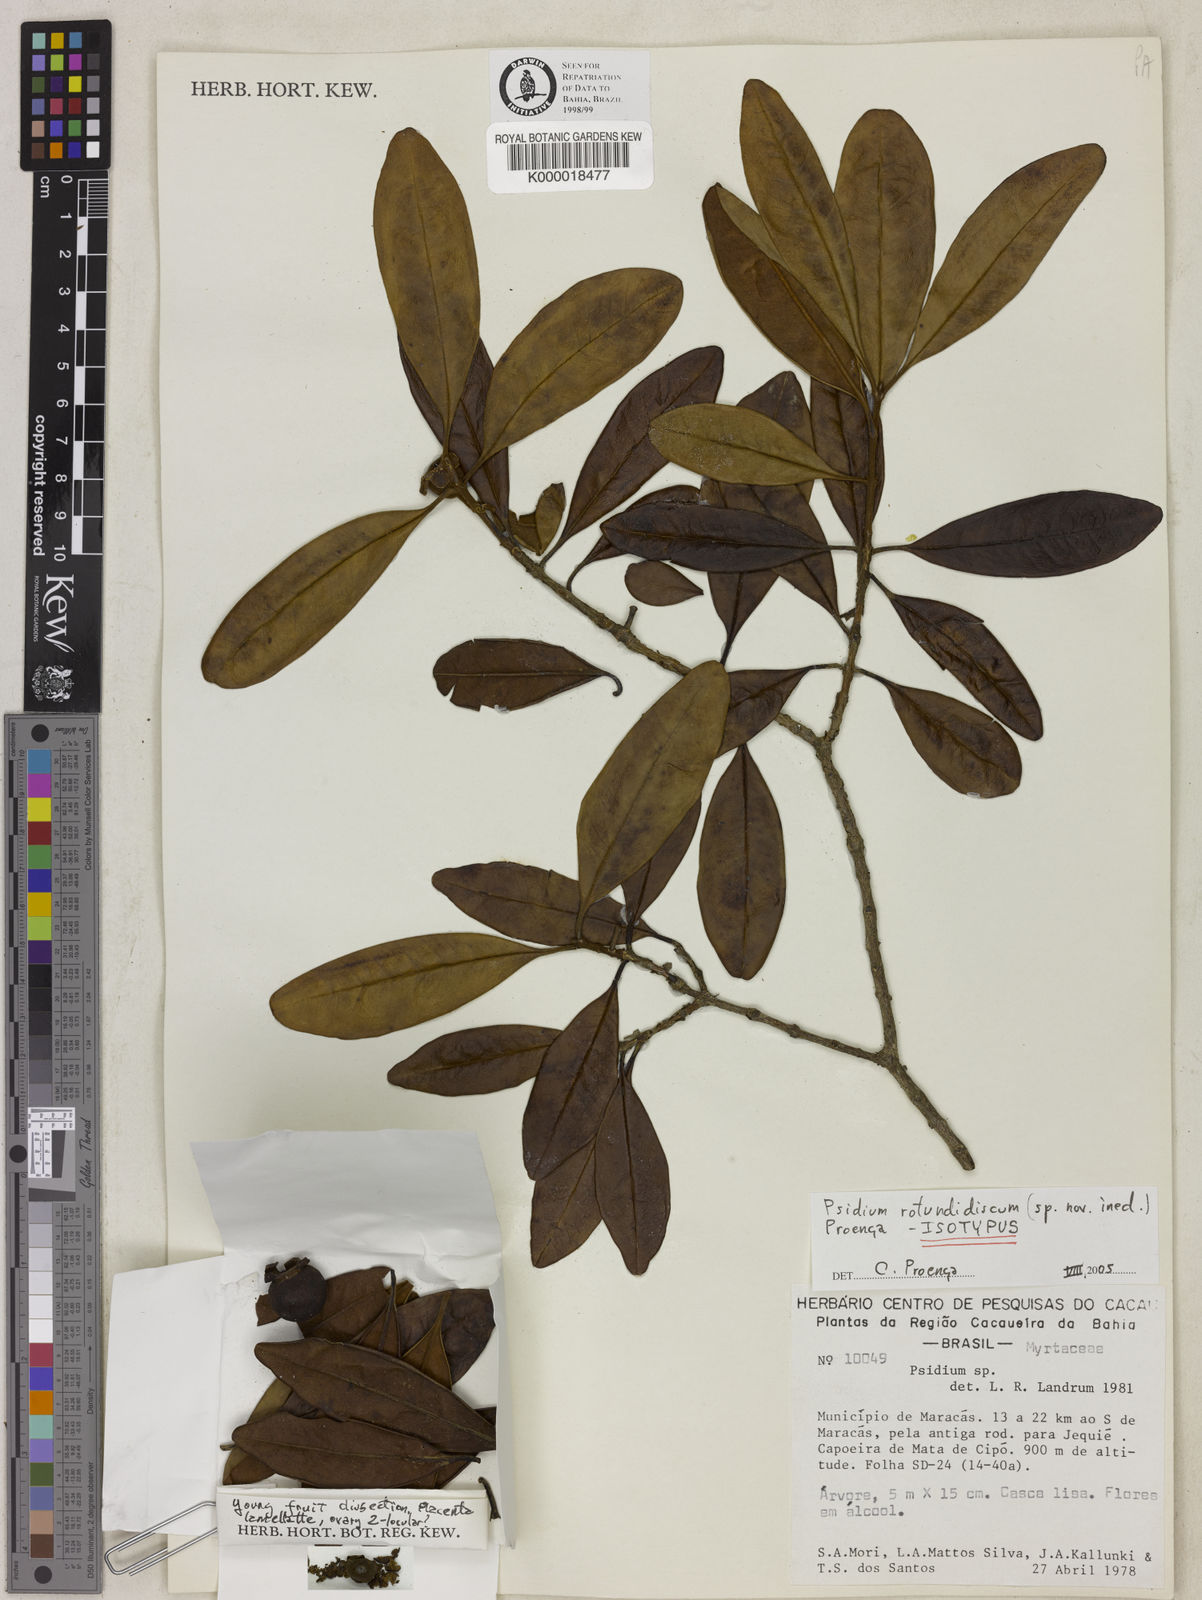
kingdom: Plantae
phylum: Tracheophyta
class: Magnoliopsida
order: Myrtales
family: Myrtaceae
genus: Psidium
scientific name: Psidium
